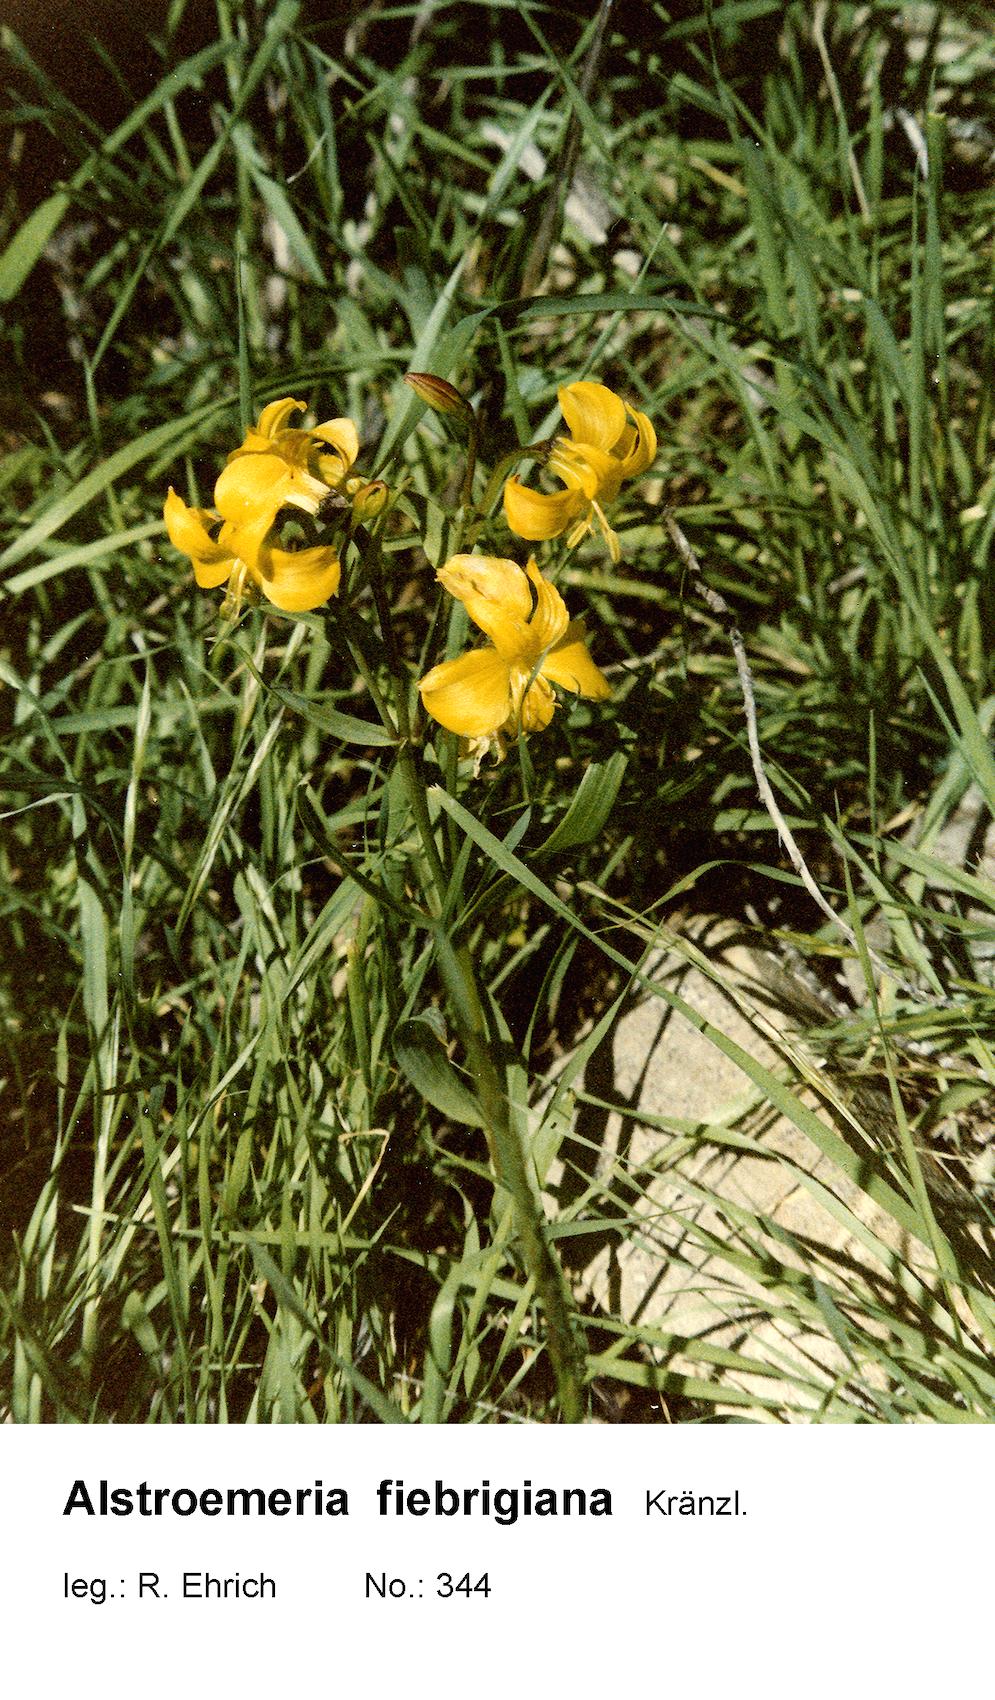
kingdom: Plantae
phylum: Tracheophyta
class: Liliopsida
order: Liliales
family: Alstroemeriaceae
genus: Alstroemeria
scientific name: Alstroemeria fiebrigiana
